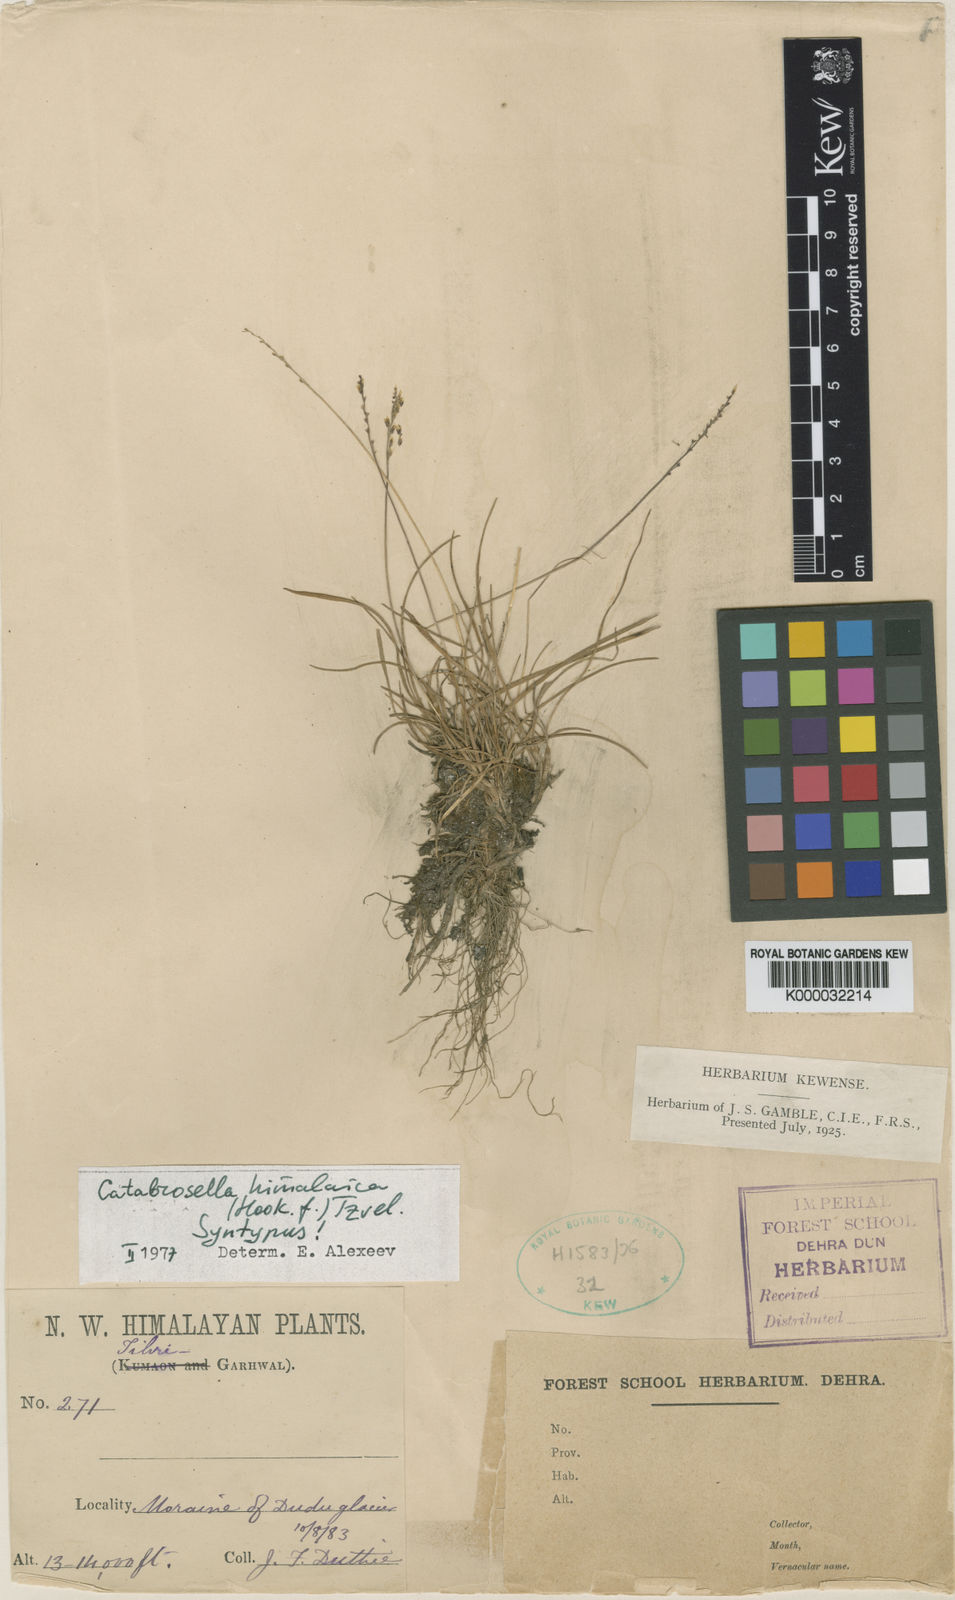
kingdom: Plantae
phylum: Tracheophyta
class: Liliopsida
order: Poales
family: Poaceae
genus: Catabrosella
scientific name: Catabrosella himalaica
